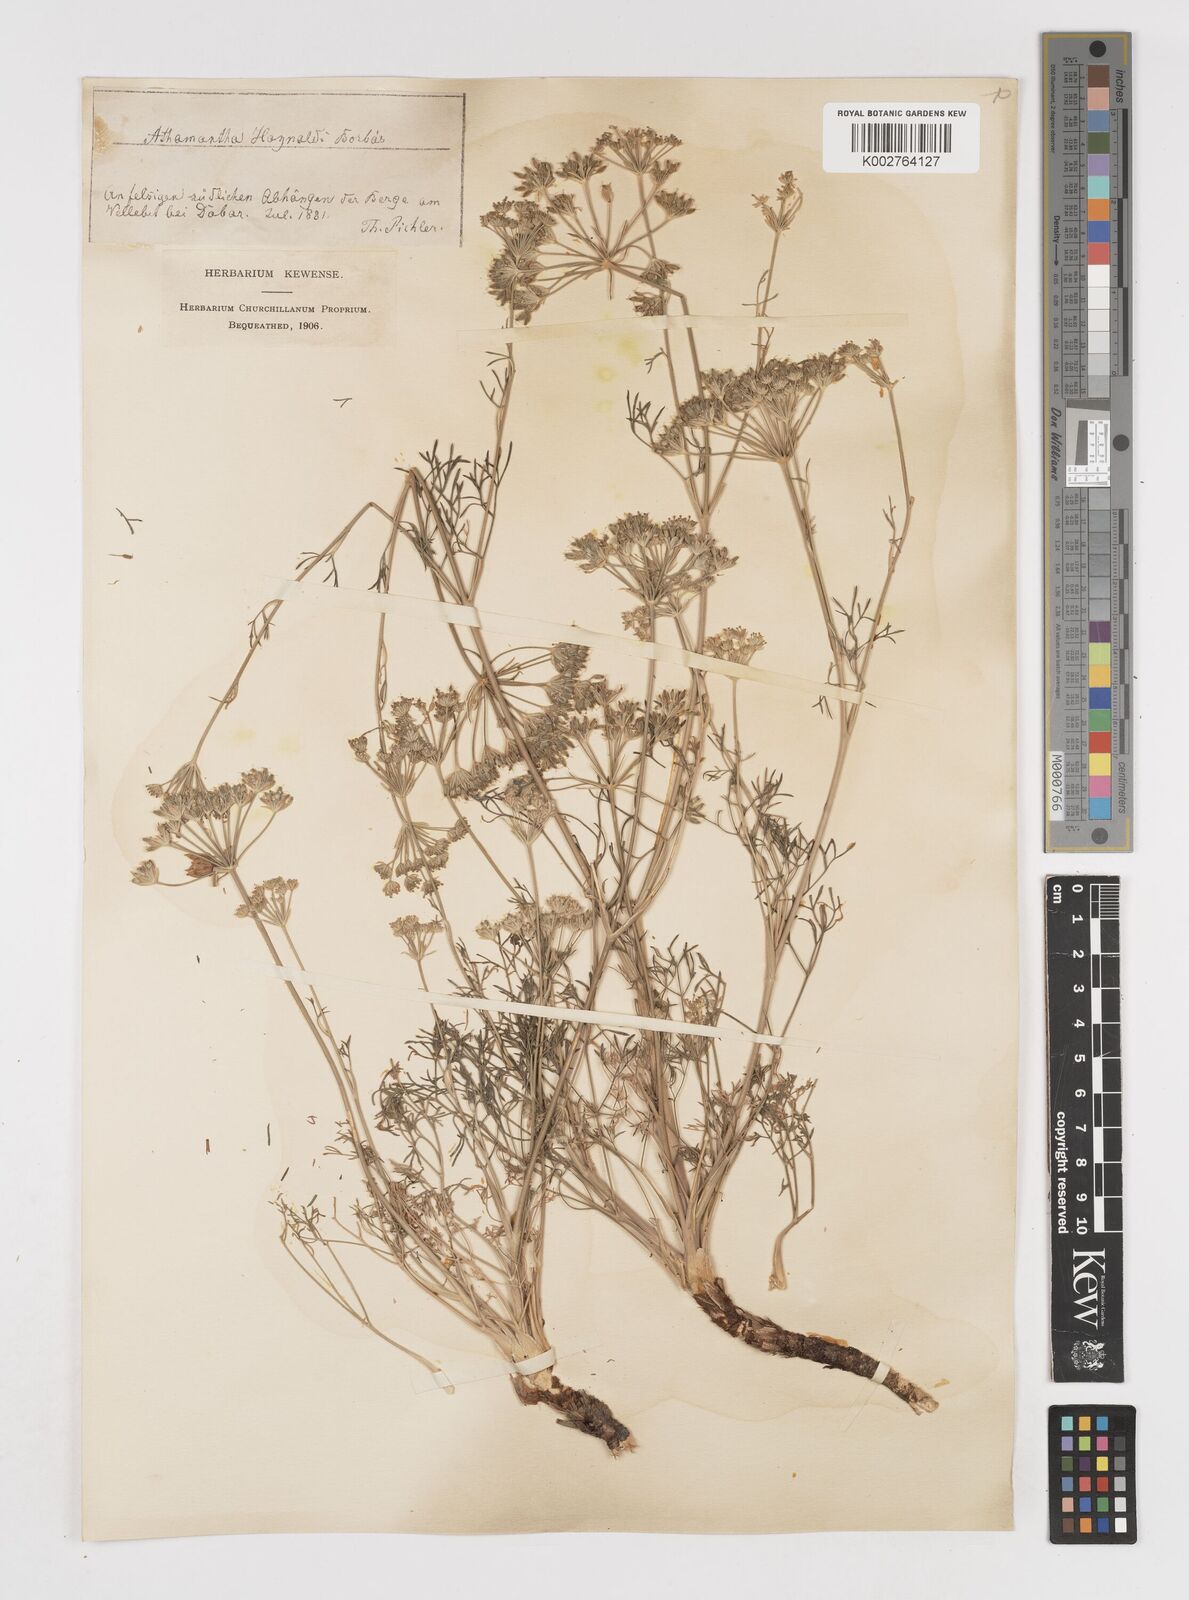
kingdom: Plantae
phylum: Tracheophyta
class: Magnoliopsida
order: Apiales
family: Apiaceae
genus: Athamanta
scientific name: Athamanta turbith
